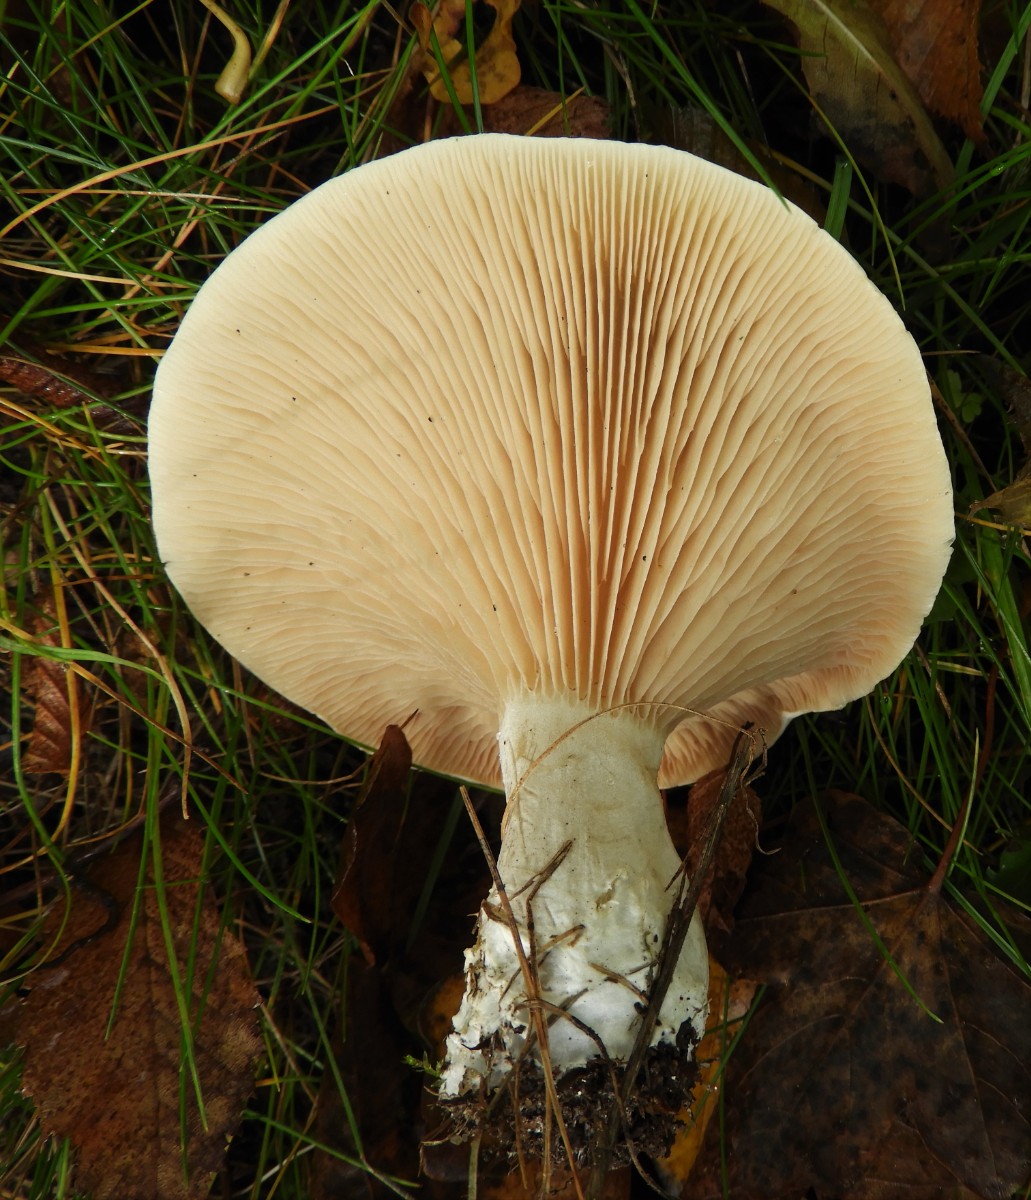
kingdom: Fungi
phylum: Basidiomycota
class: Agaricomycetes
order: Agaricales
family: Entolomataceae
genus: Clitopilus
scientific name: Clitopilus prunulus
